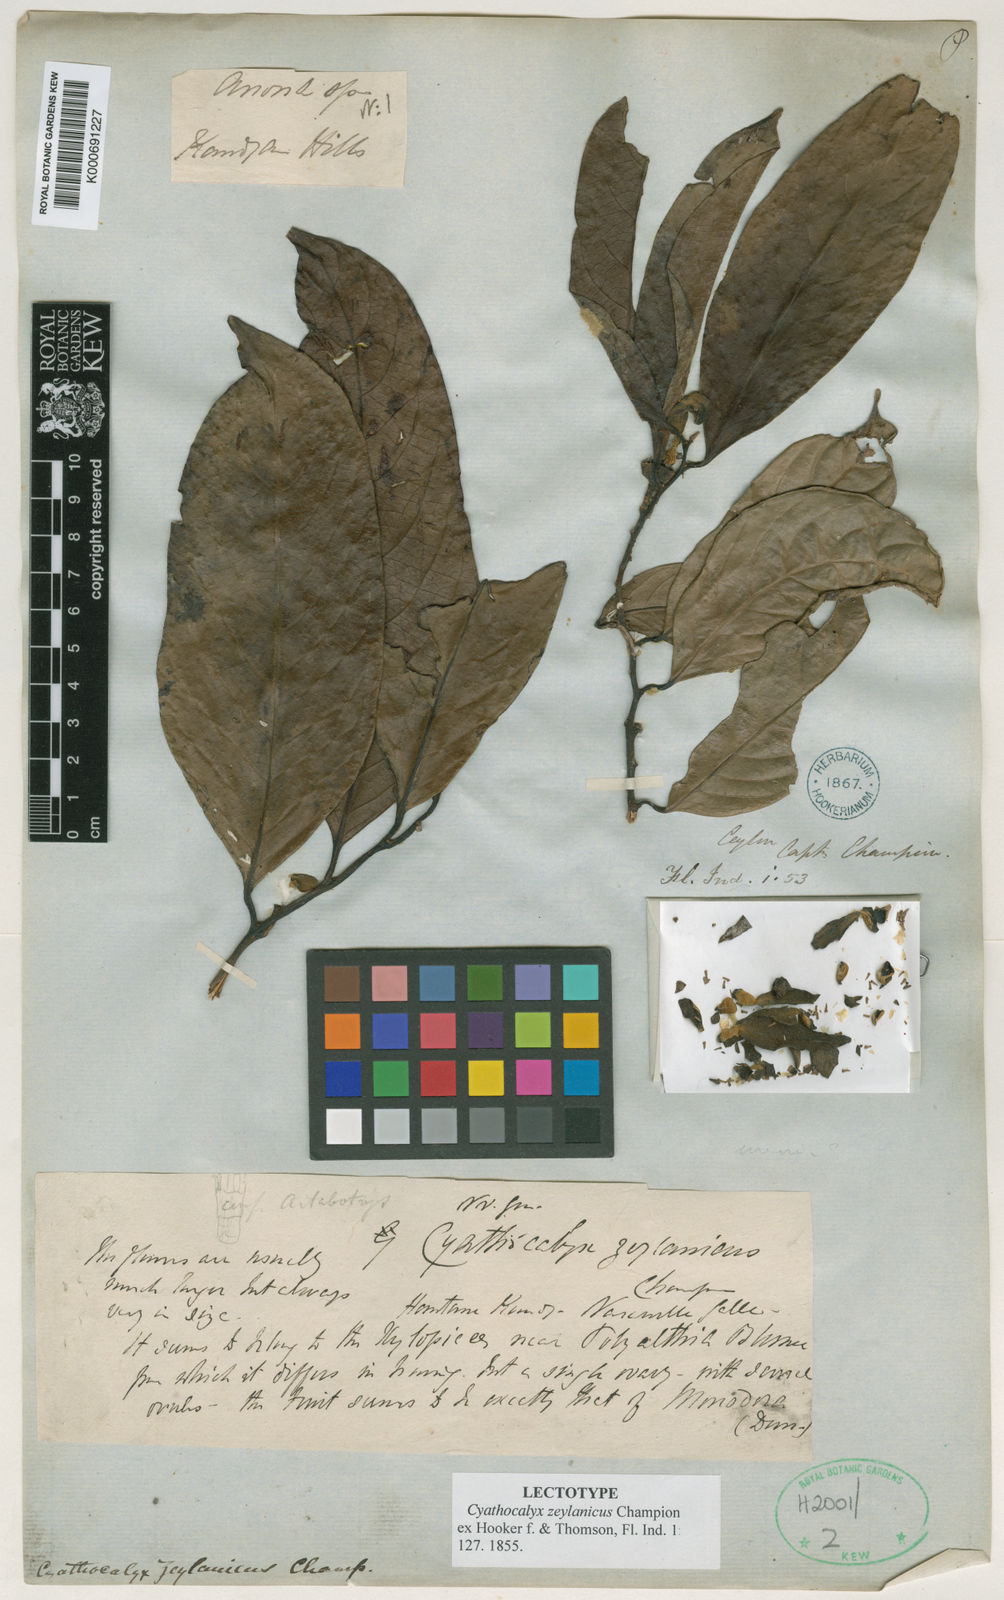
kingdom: Plantae
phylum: Tracheophyta
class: Magnoliopsida
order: Magnoliales
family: Annonaceae
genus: Cyathocalyx
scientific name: Cyathocalyx zeylanicus
